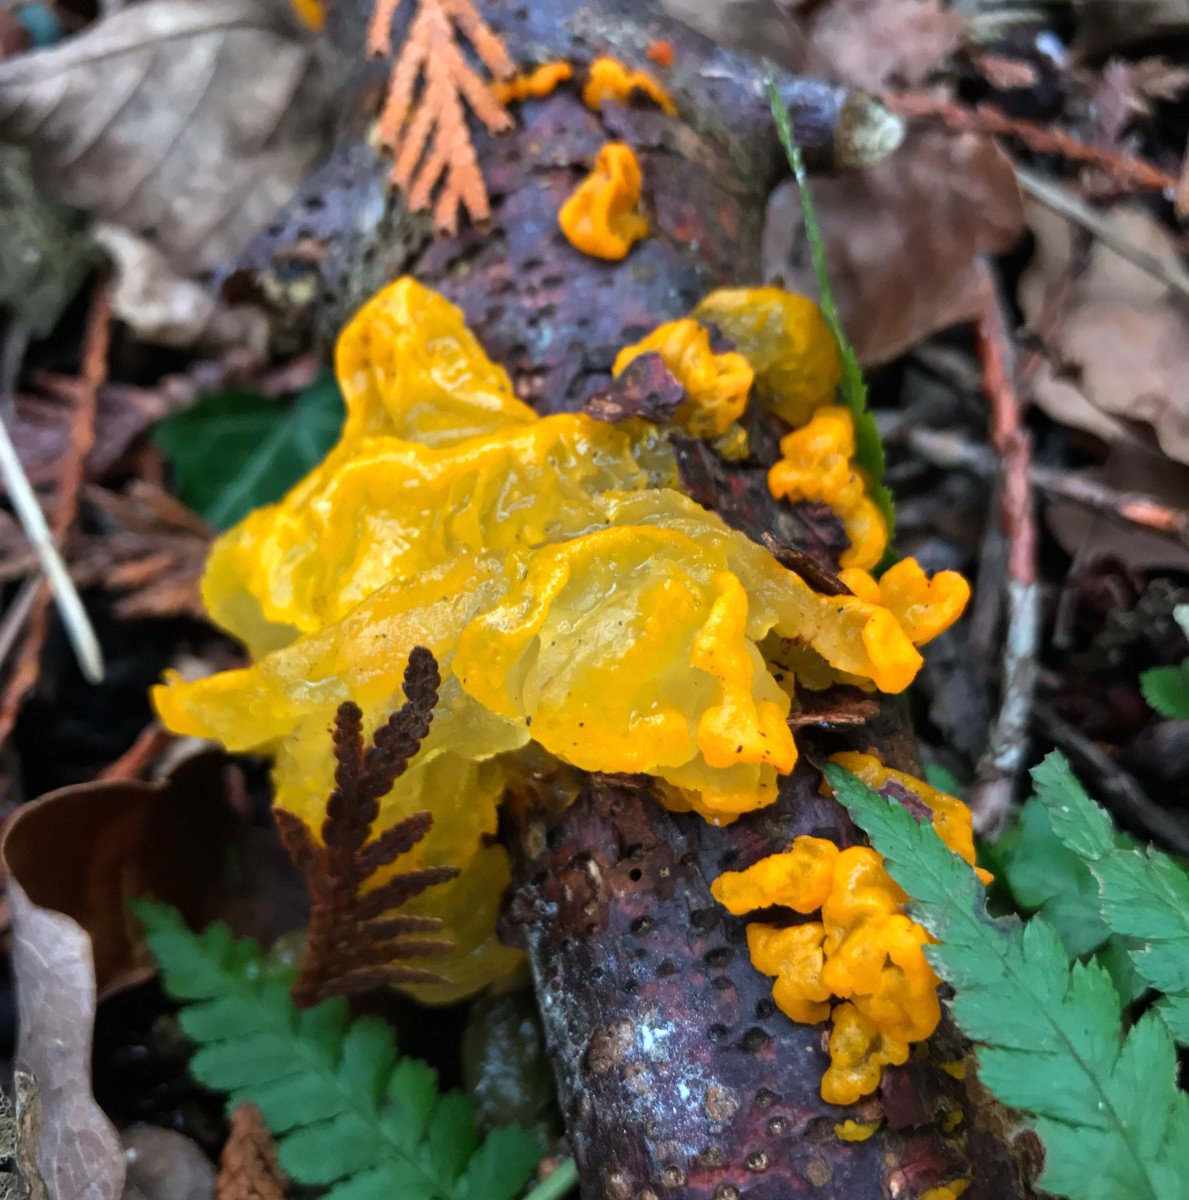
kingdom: Fungi
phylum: Basidiomycota
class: Tremellomycetes
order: Tremellales
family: Tremellaceae
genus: Tremella
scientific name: Tremella mesenterica
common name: gul bævresvamp
